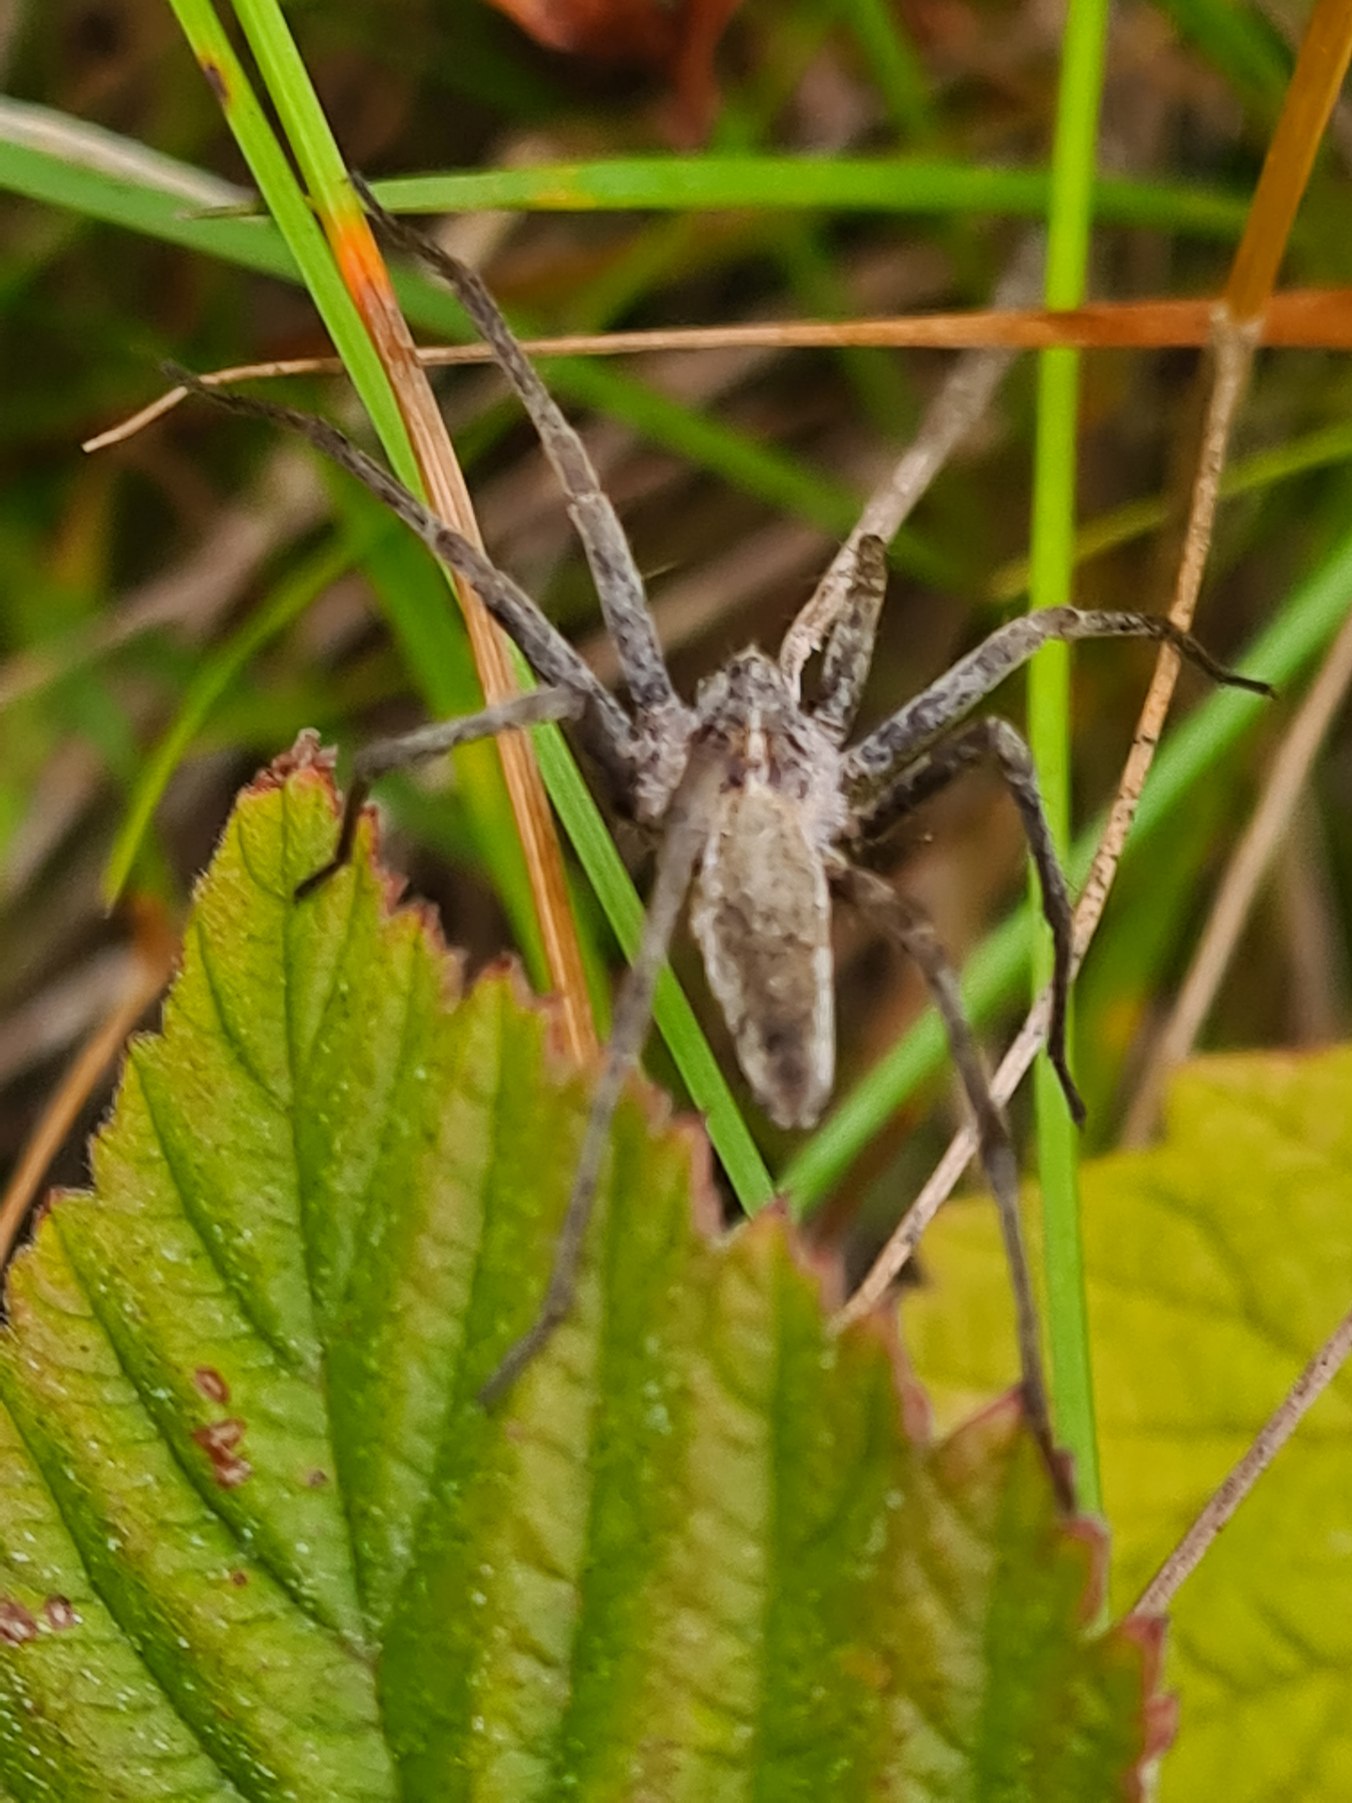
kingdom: Animalia
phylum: Arthropoda
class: Arachnida
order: Araneae
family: Pisauridae
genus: Pisaura
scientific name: Pisaura mirabilis
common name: Almindelig rovedderkop
